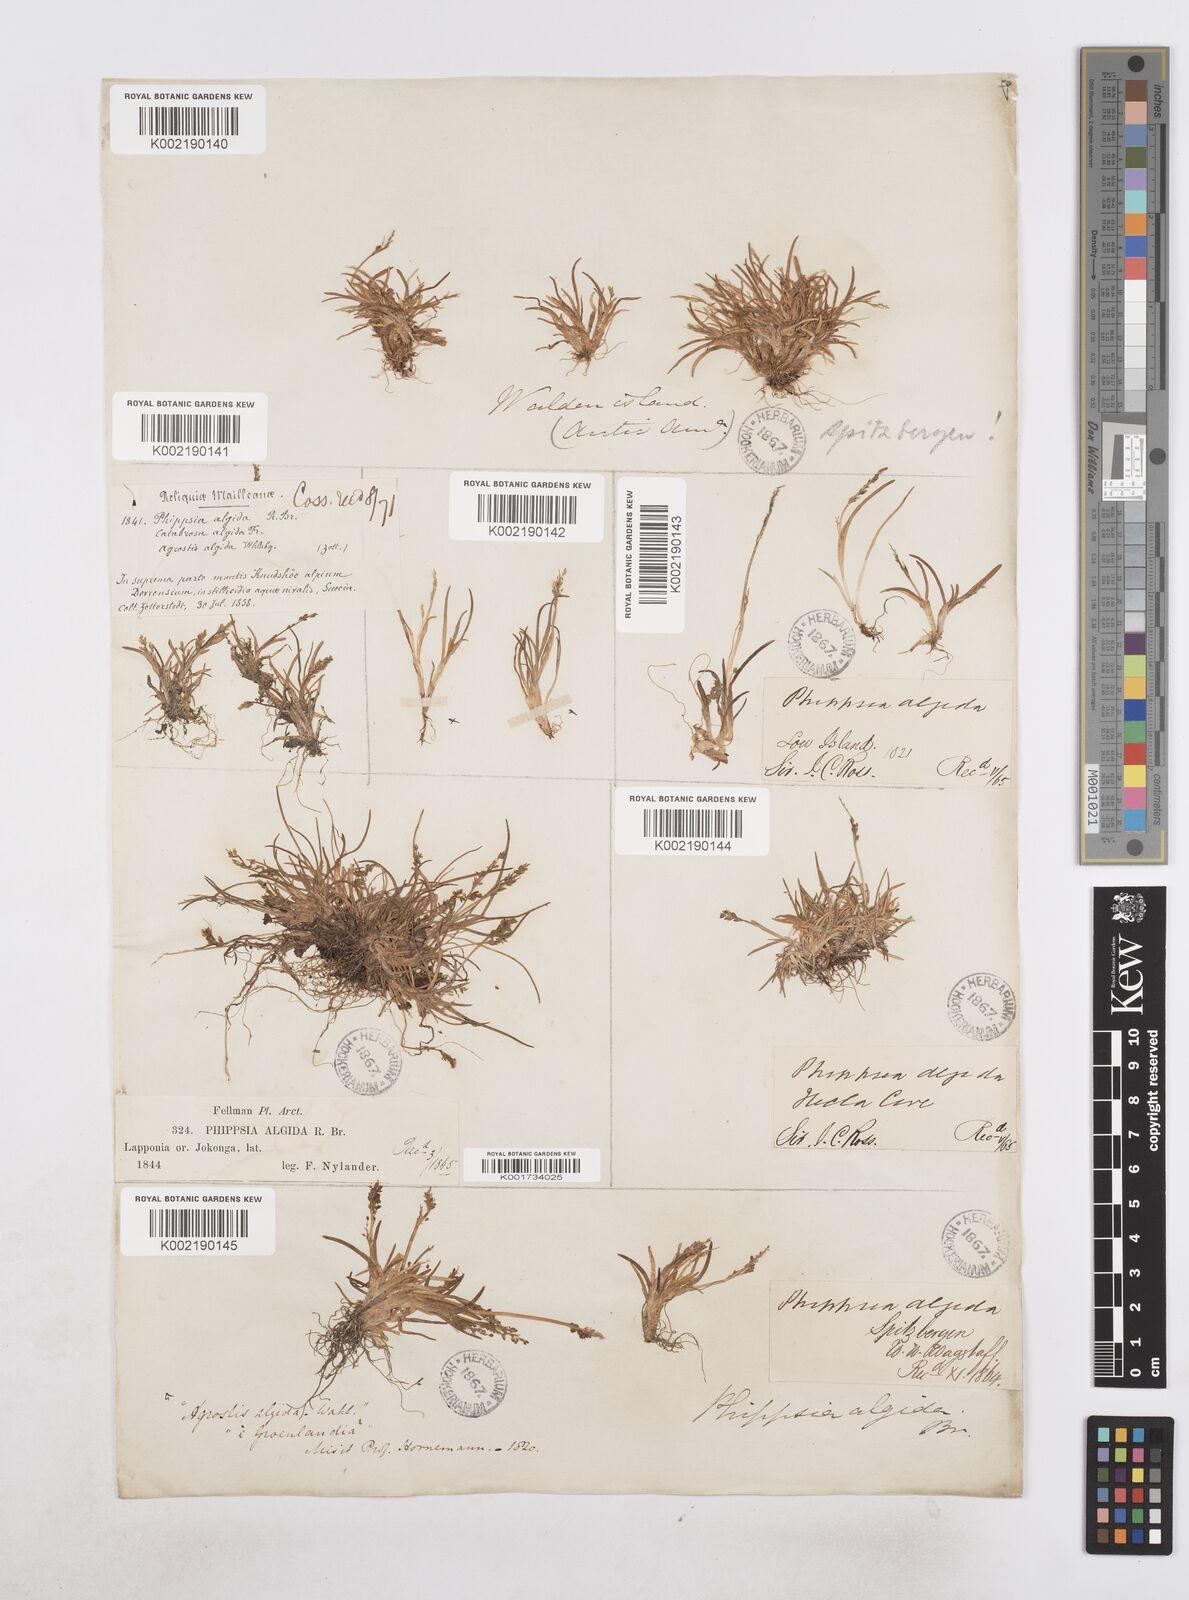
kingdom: Plantae
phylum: Tracheophyta
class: Liliopsida
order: Poales
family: Poaceae
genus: Phippsia
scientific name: Phippsia algida
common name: Ice grass
